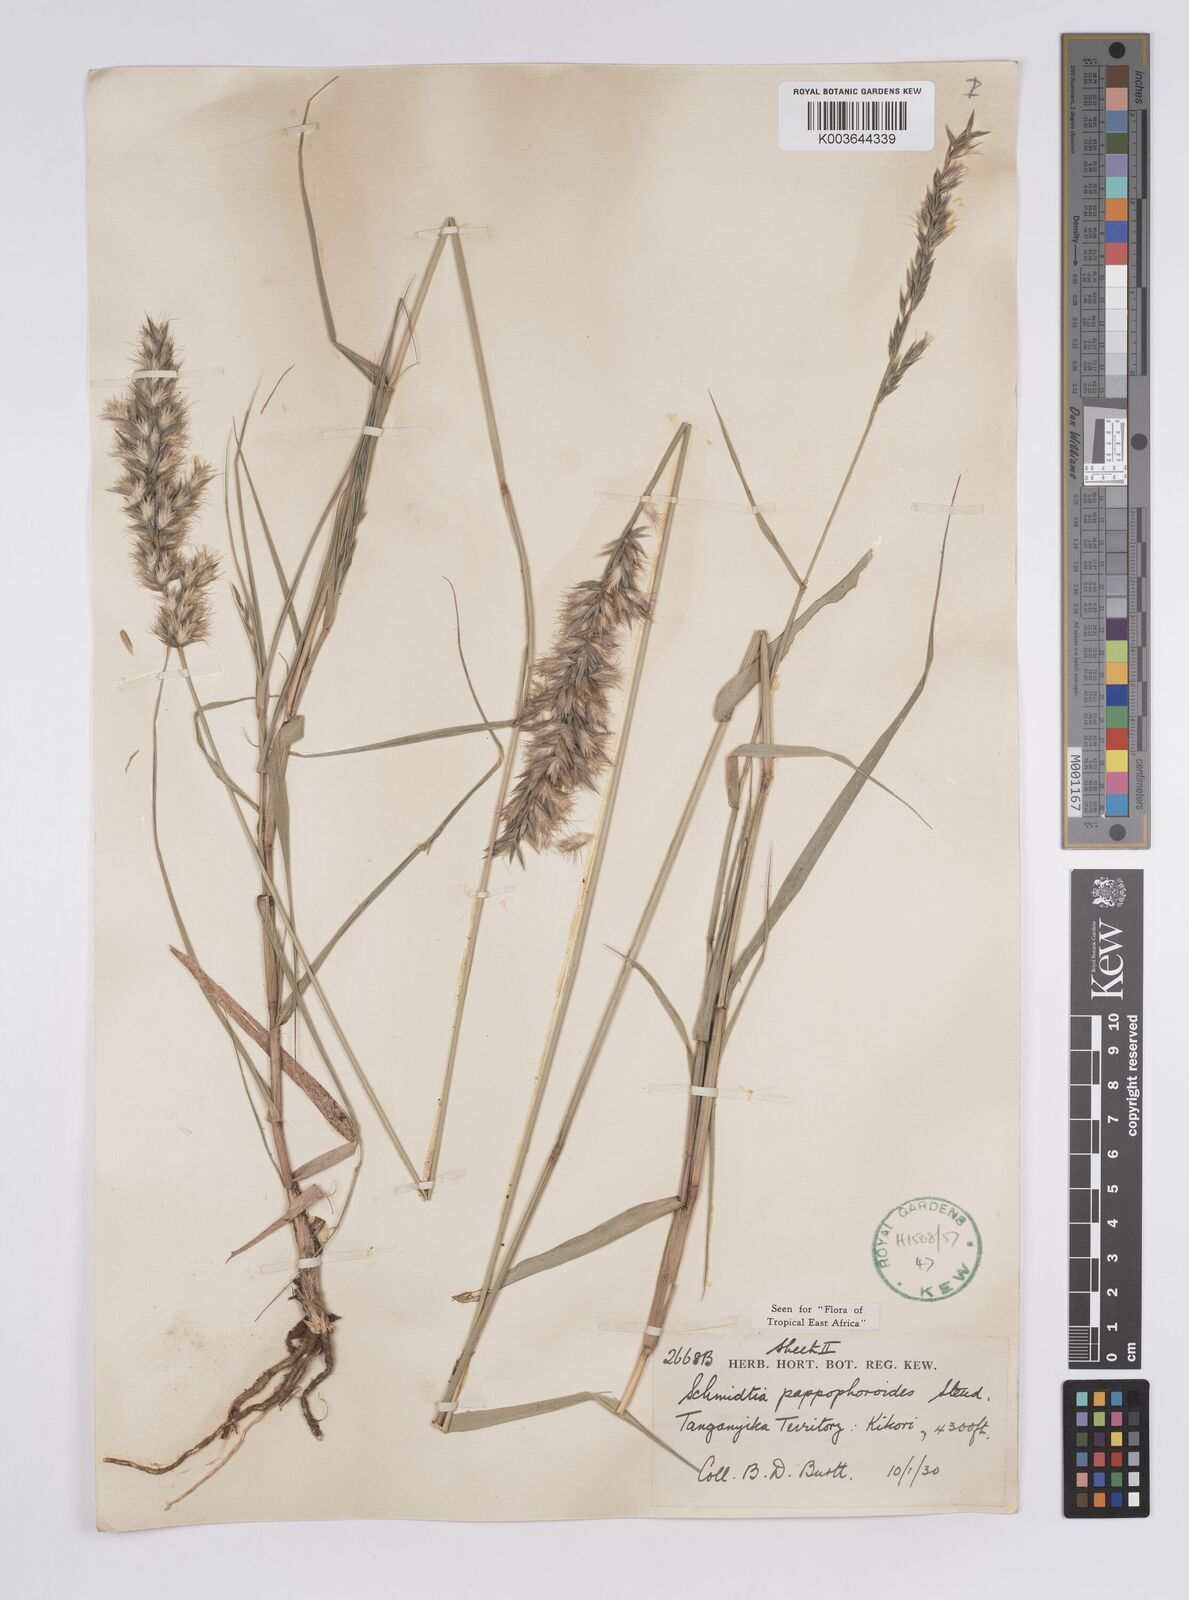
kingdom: Plantae
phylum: Tracheophyta
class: Liliopsida
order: Poales
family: Poaceae
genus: Schmidtia
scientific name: Schmidtia pappophoroides
